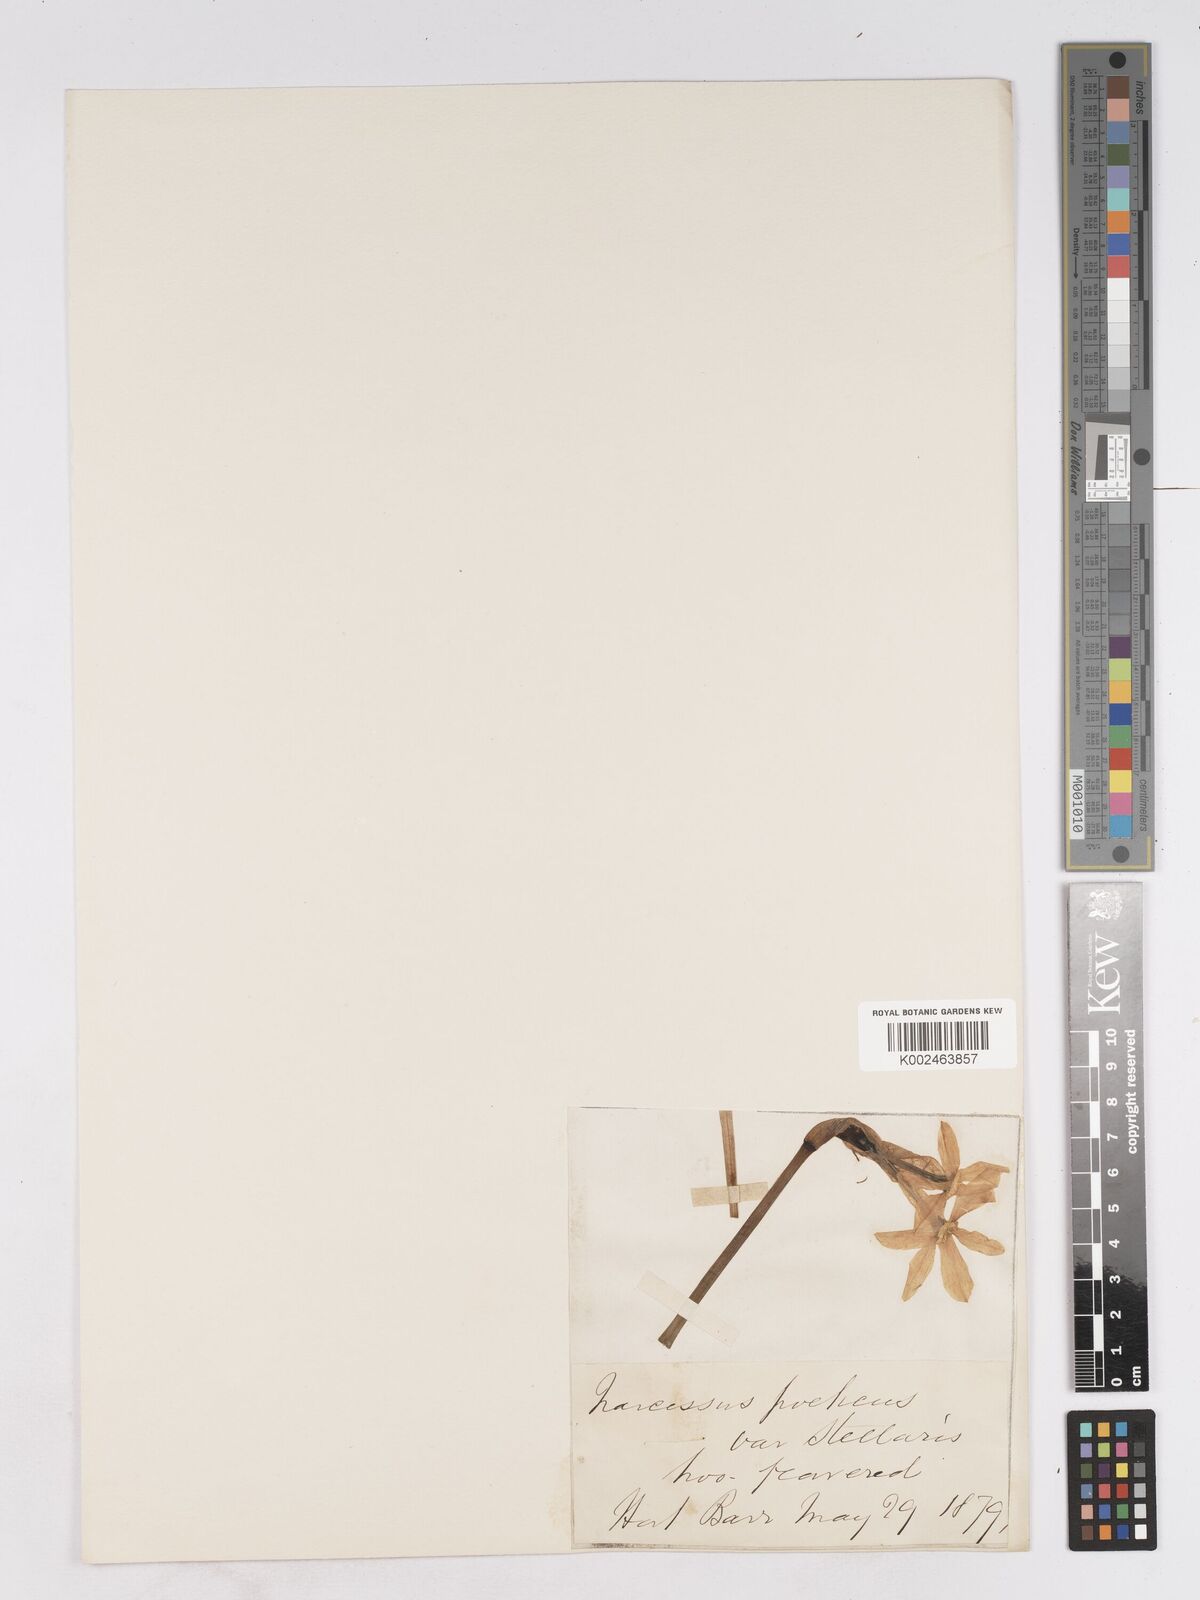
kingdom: Plantae
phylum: Tracheophyta
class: Liliopsida
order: Asparagales
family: Amaryllidaceae
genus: Narcissus
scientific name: Narcissus
